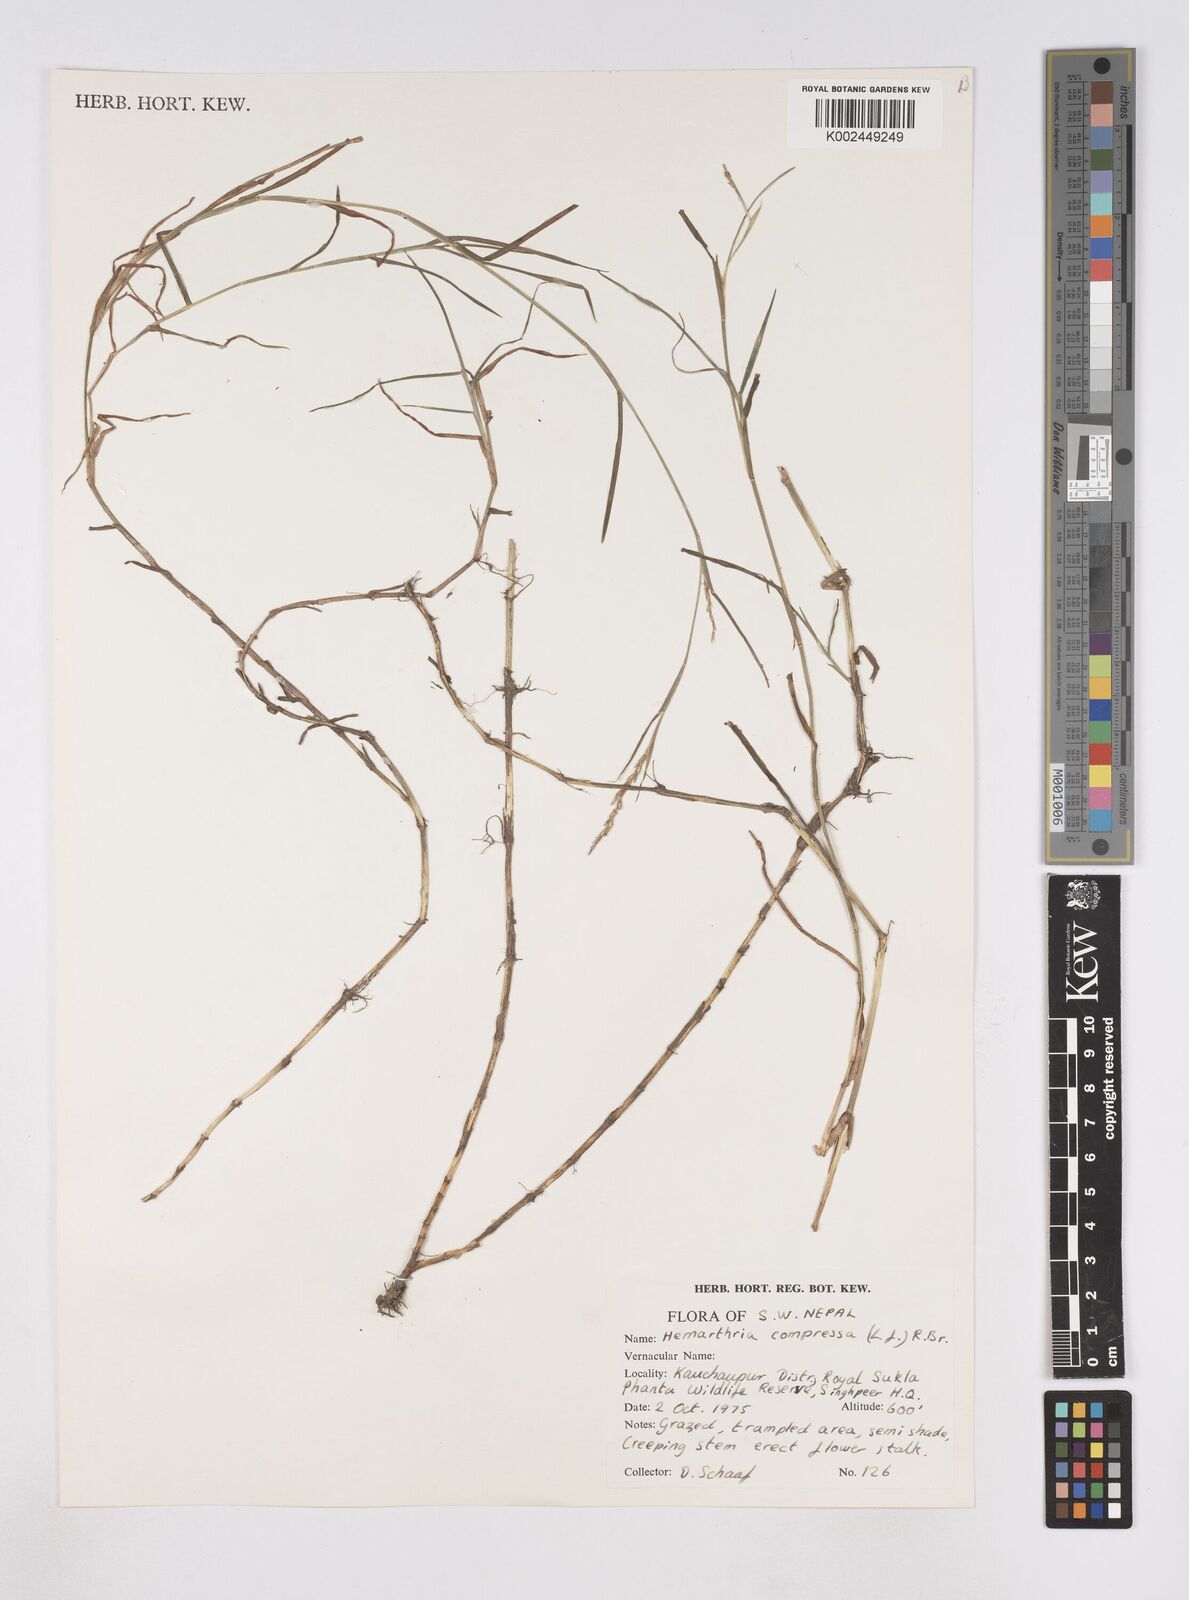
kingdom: Plantae
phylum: Tracheophyta
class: Liliopsida
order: Poales
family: Poaceae
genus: Hemarthria
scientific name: Hemarthria compressa
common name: Whip grass
